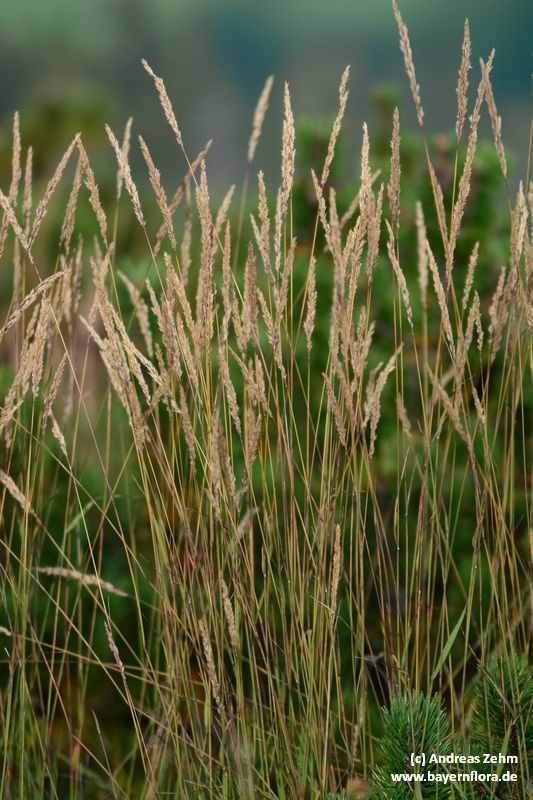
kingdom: Plantae
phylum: Tracheophyta
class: Liliopsida
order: Poales
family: Poaceae
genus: Calamagrostis
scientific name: Calamagrostis villosa
